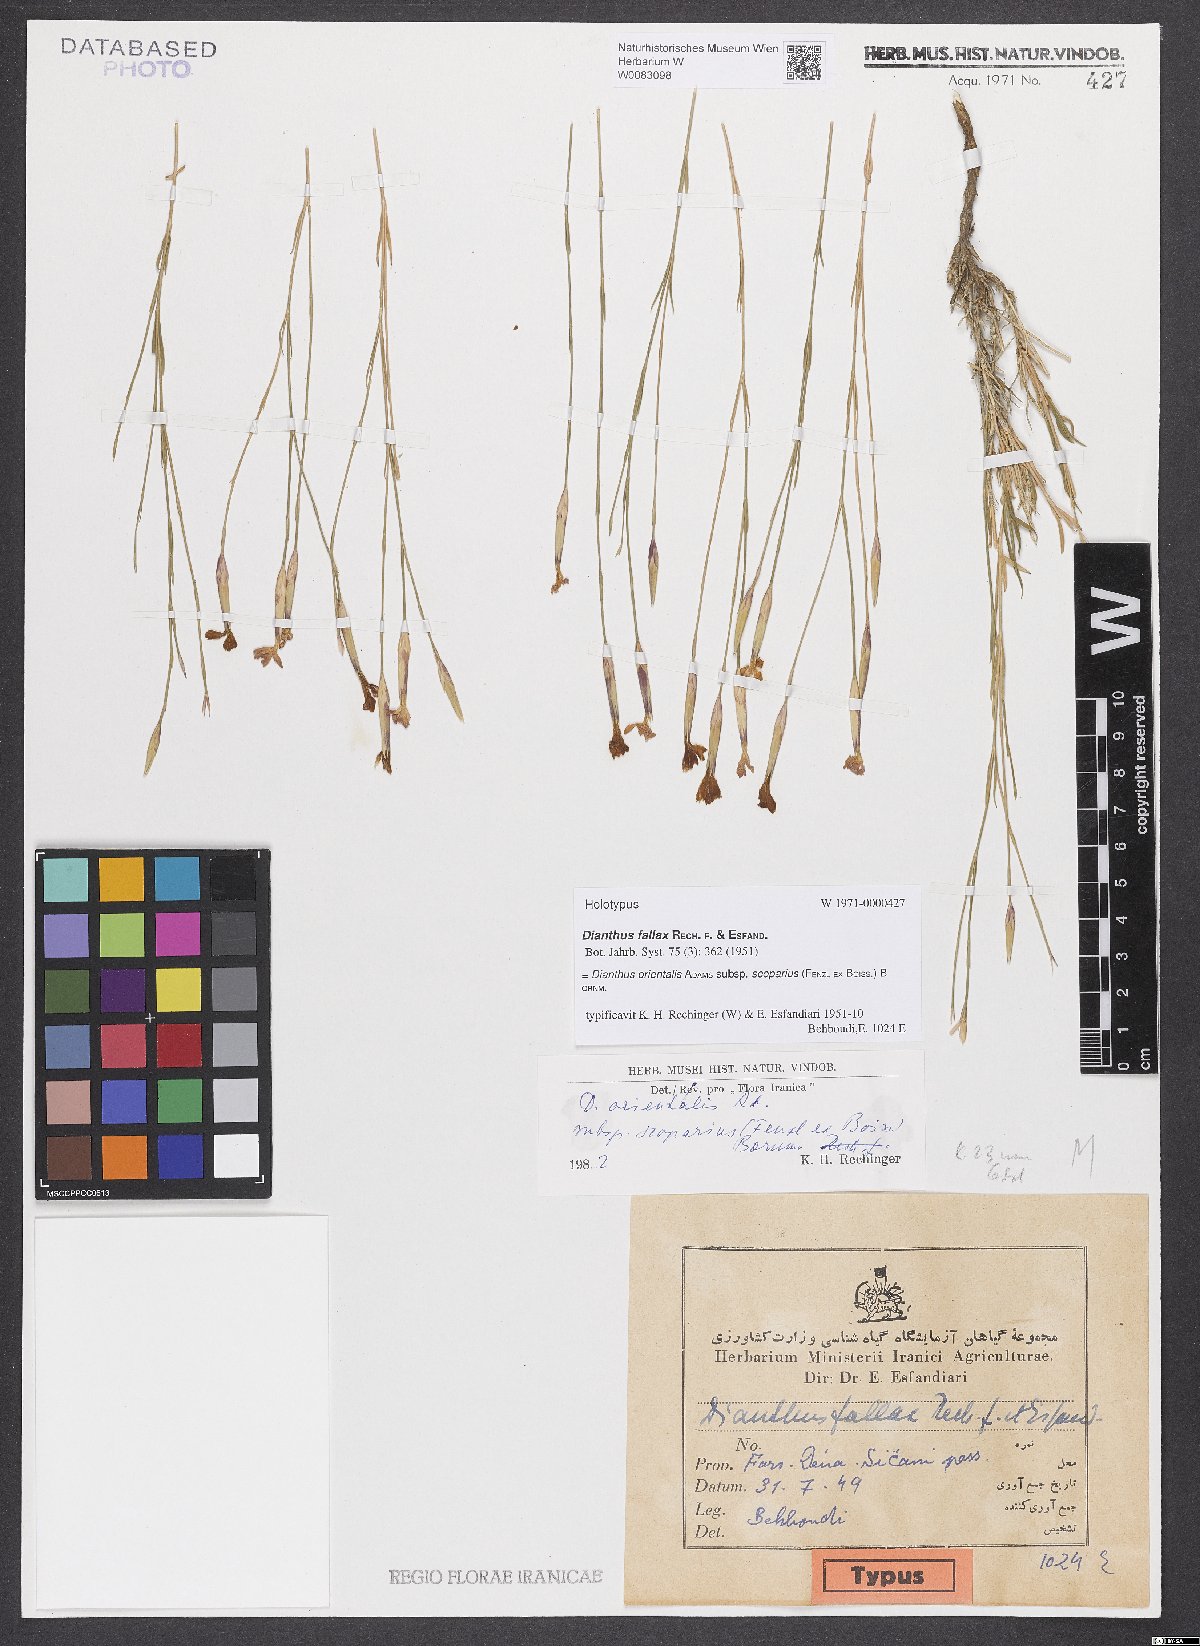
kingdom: Plantae
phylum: Tracheophyta
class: Magnoliopsida
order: Caryophyllales
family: Caryophyllaceae
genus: Dianthus
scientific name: Dianthus orientalis
